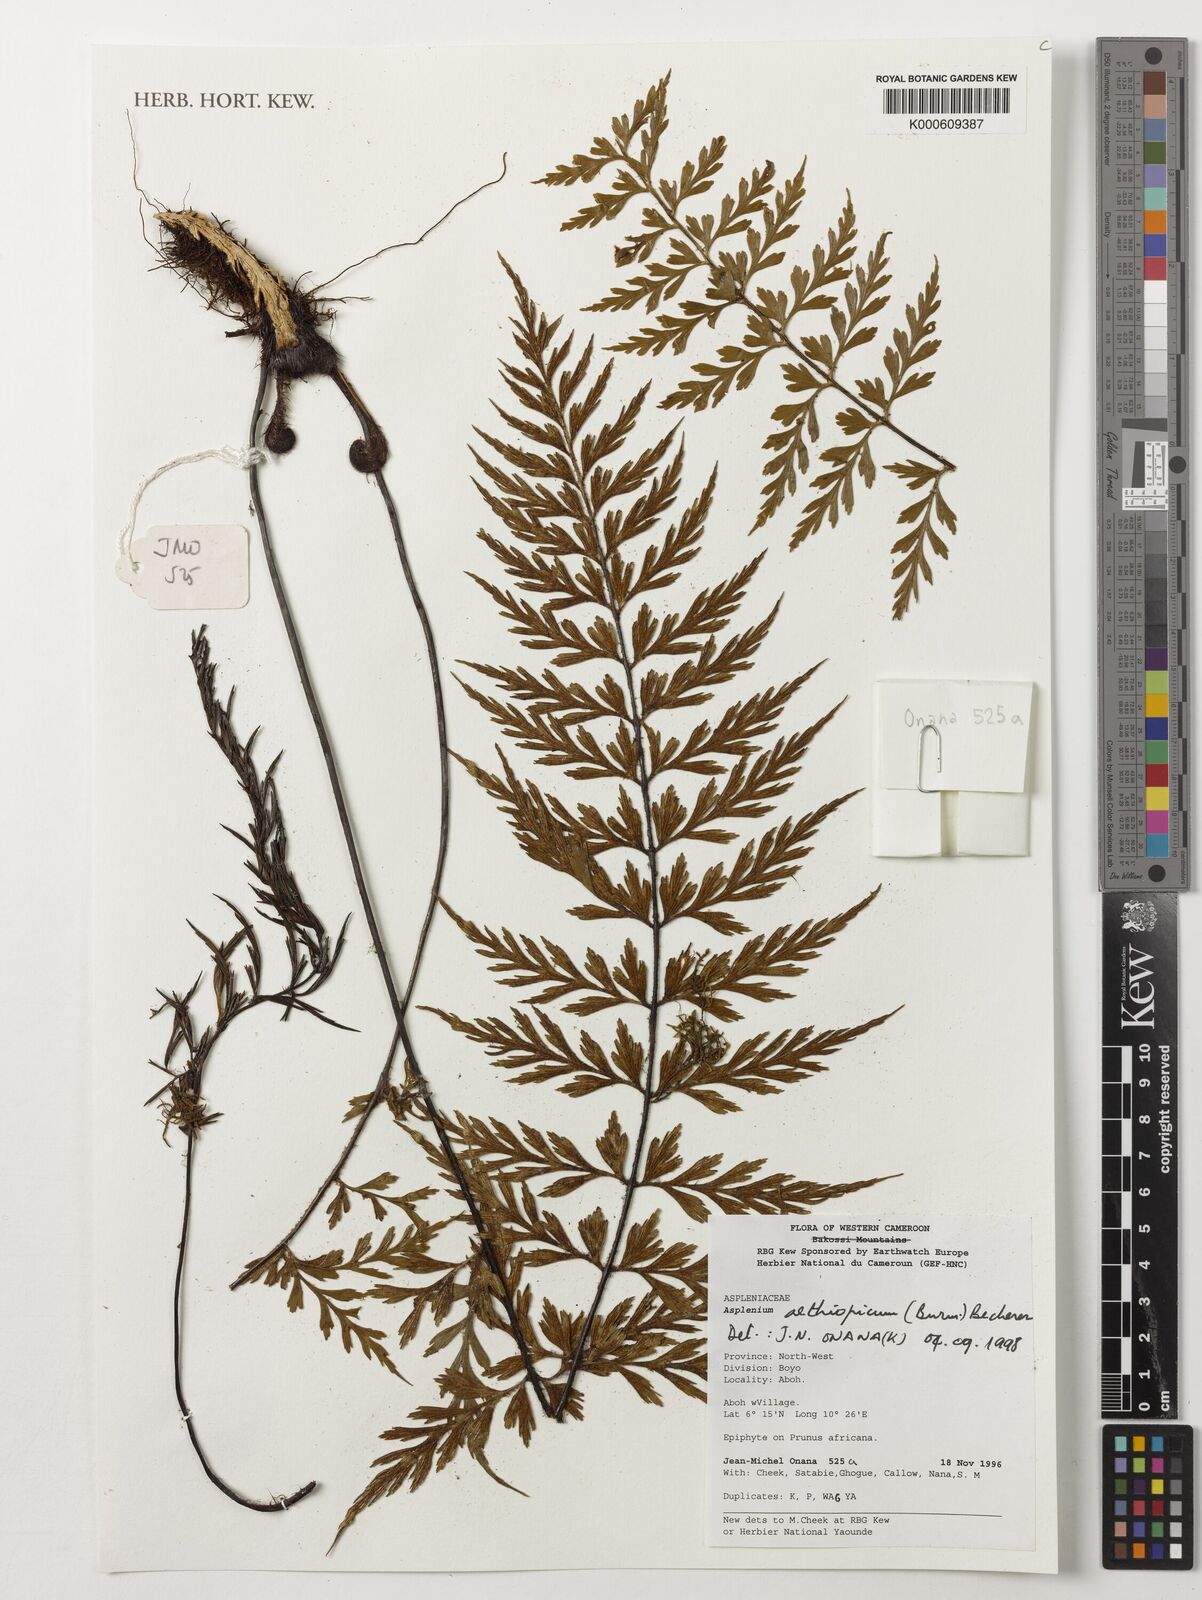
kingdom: Plantae
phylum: Tracheophyta
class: Polypodiopsida
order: Polypodiales
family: Aspleniaceae
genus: Asplenium
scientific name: Asplenium aethiopicum
